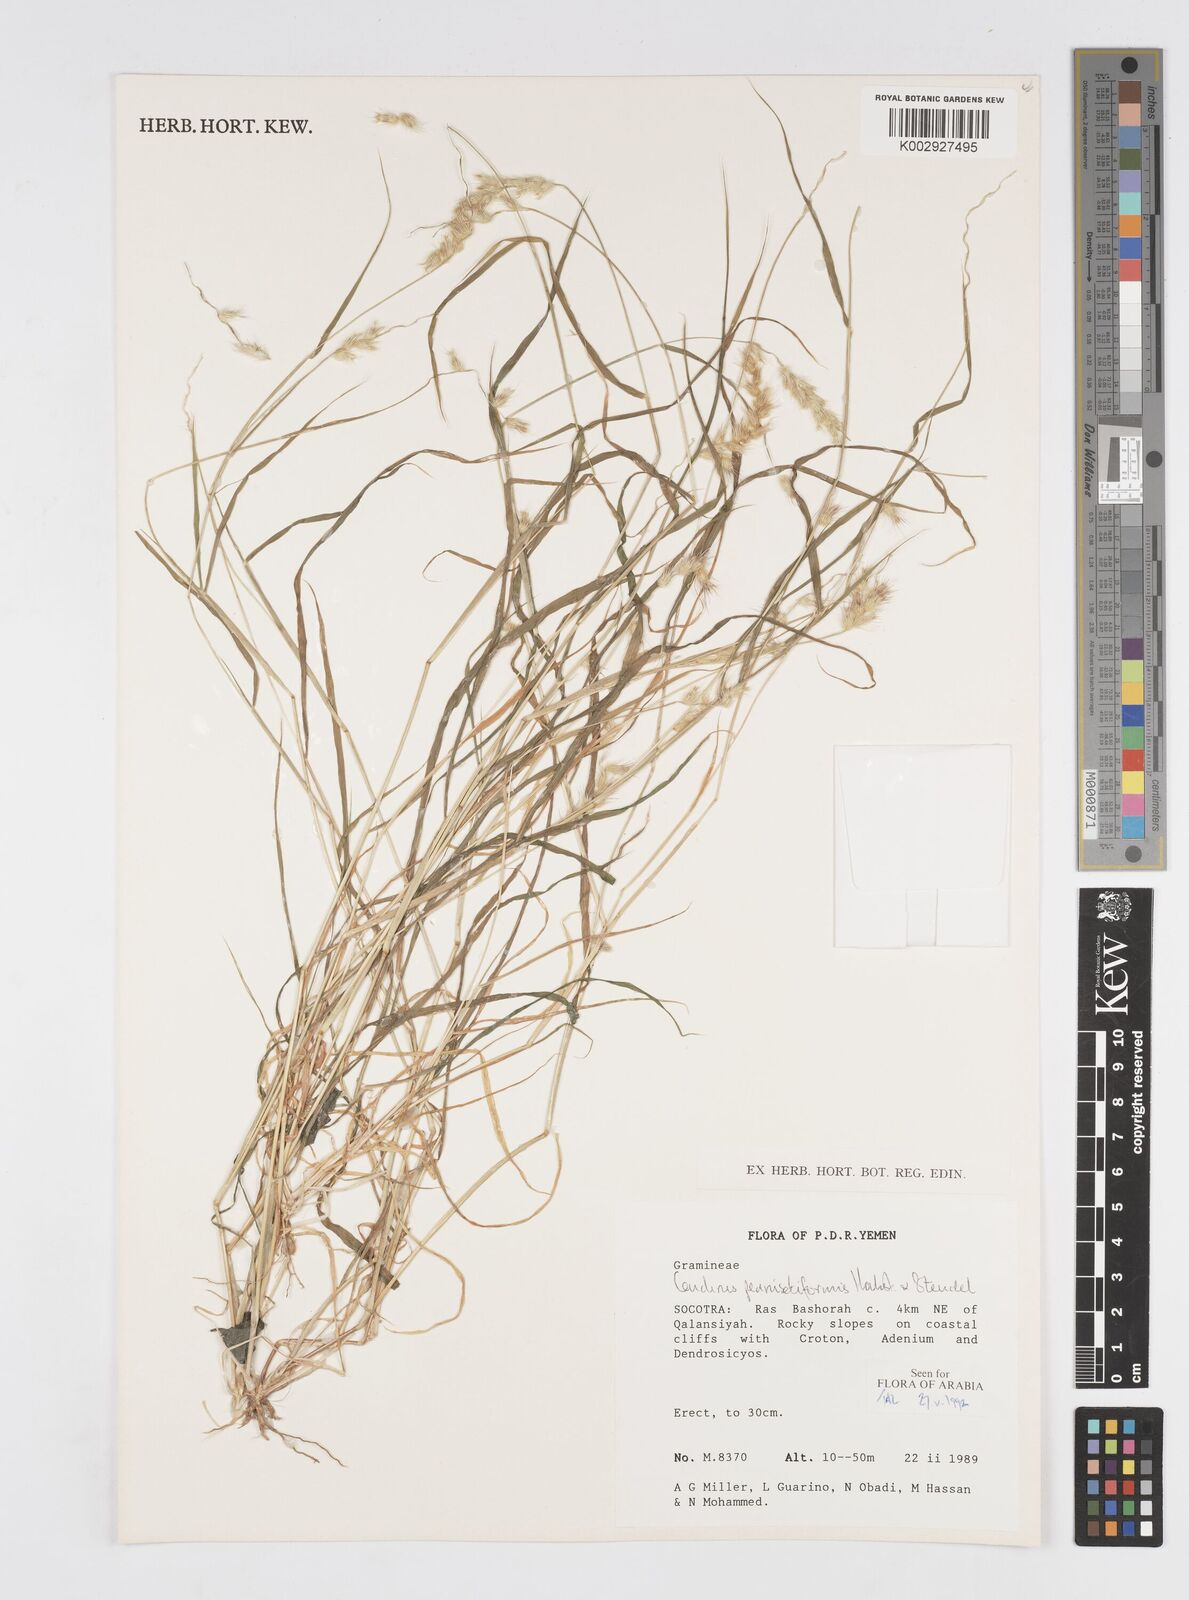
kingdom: Plantae
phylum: Tracheophyta
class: Liliopsida
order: Poales
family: Poaceae
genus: Cenchrus
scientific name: Cenchrus pennisetiformis
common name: Cloncurry
